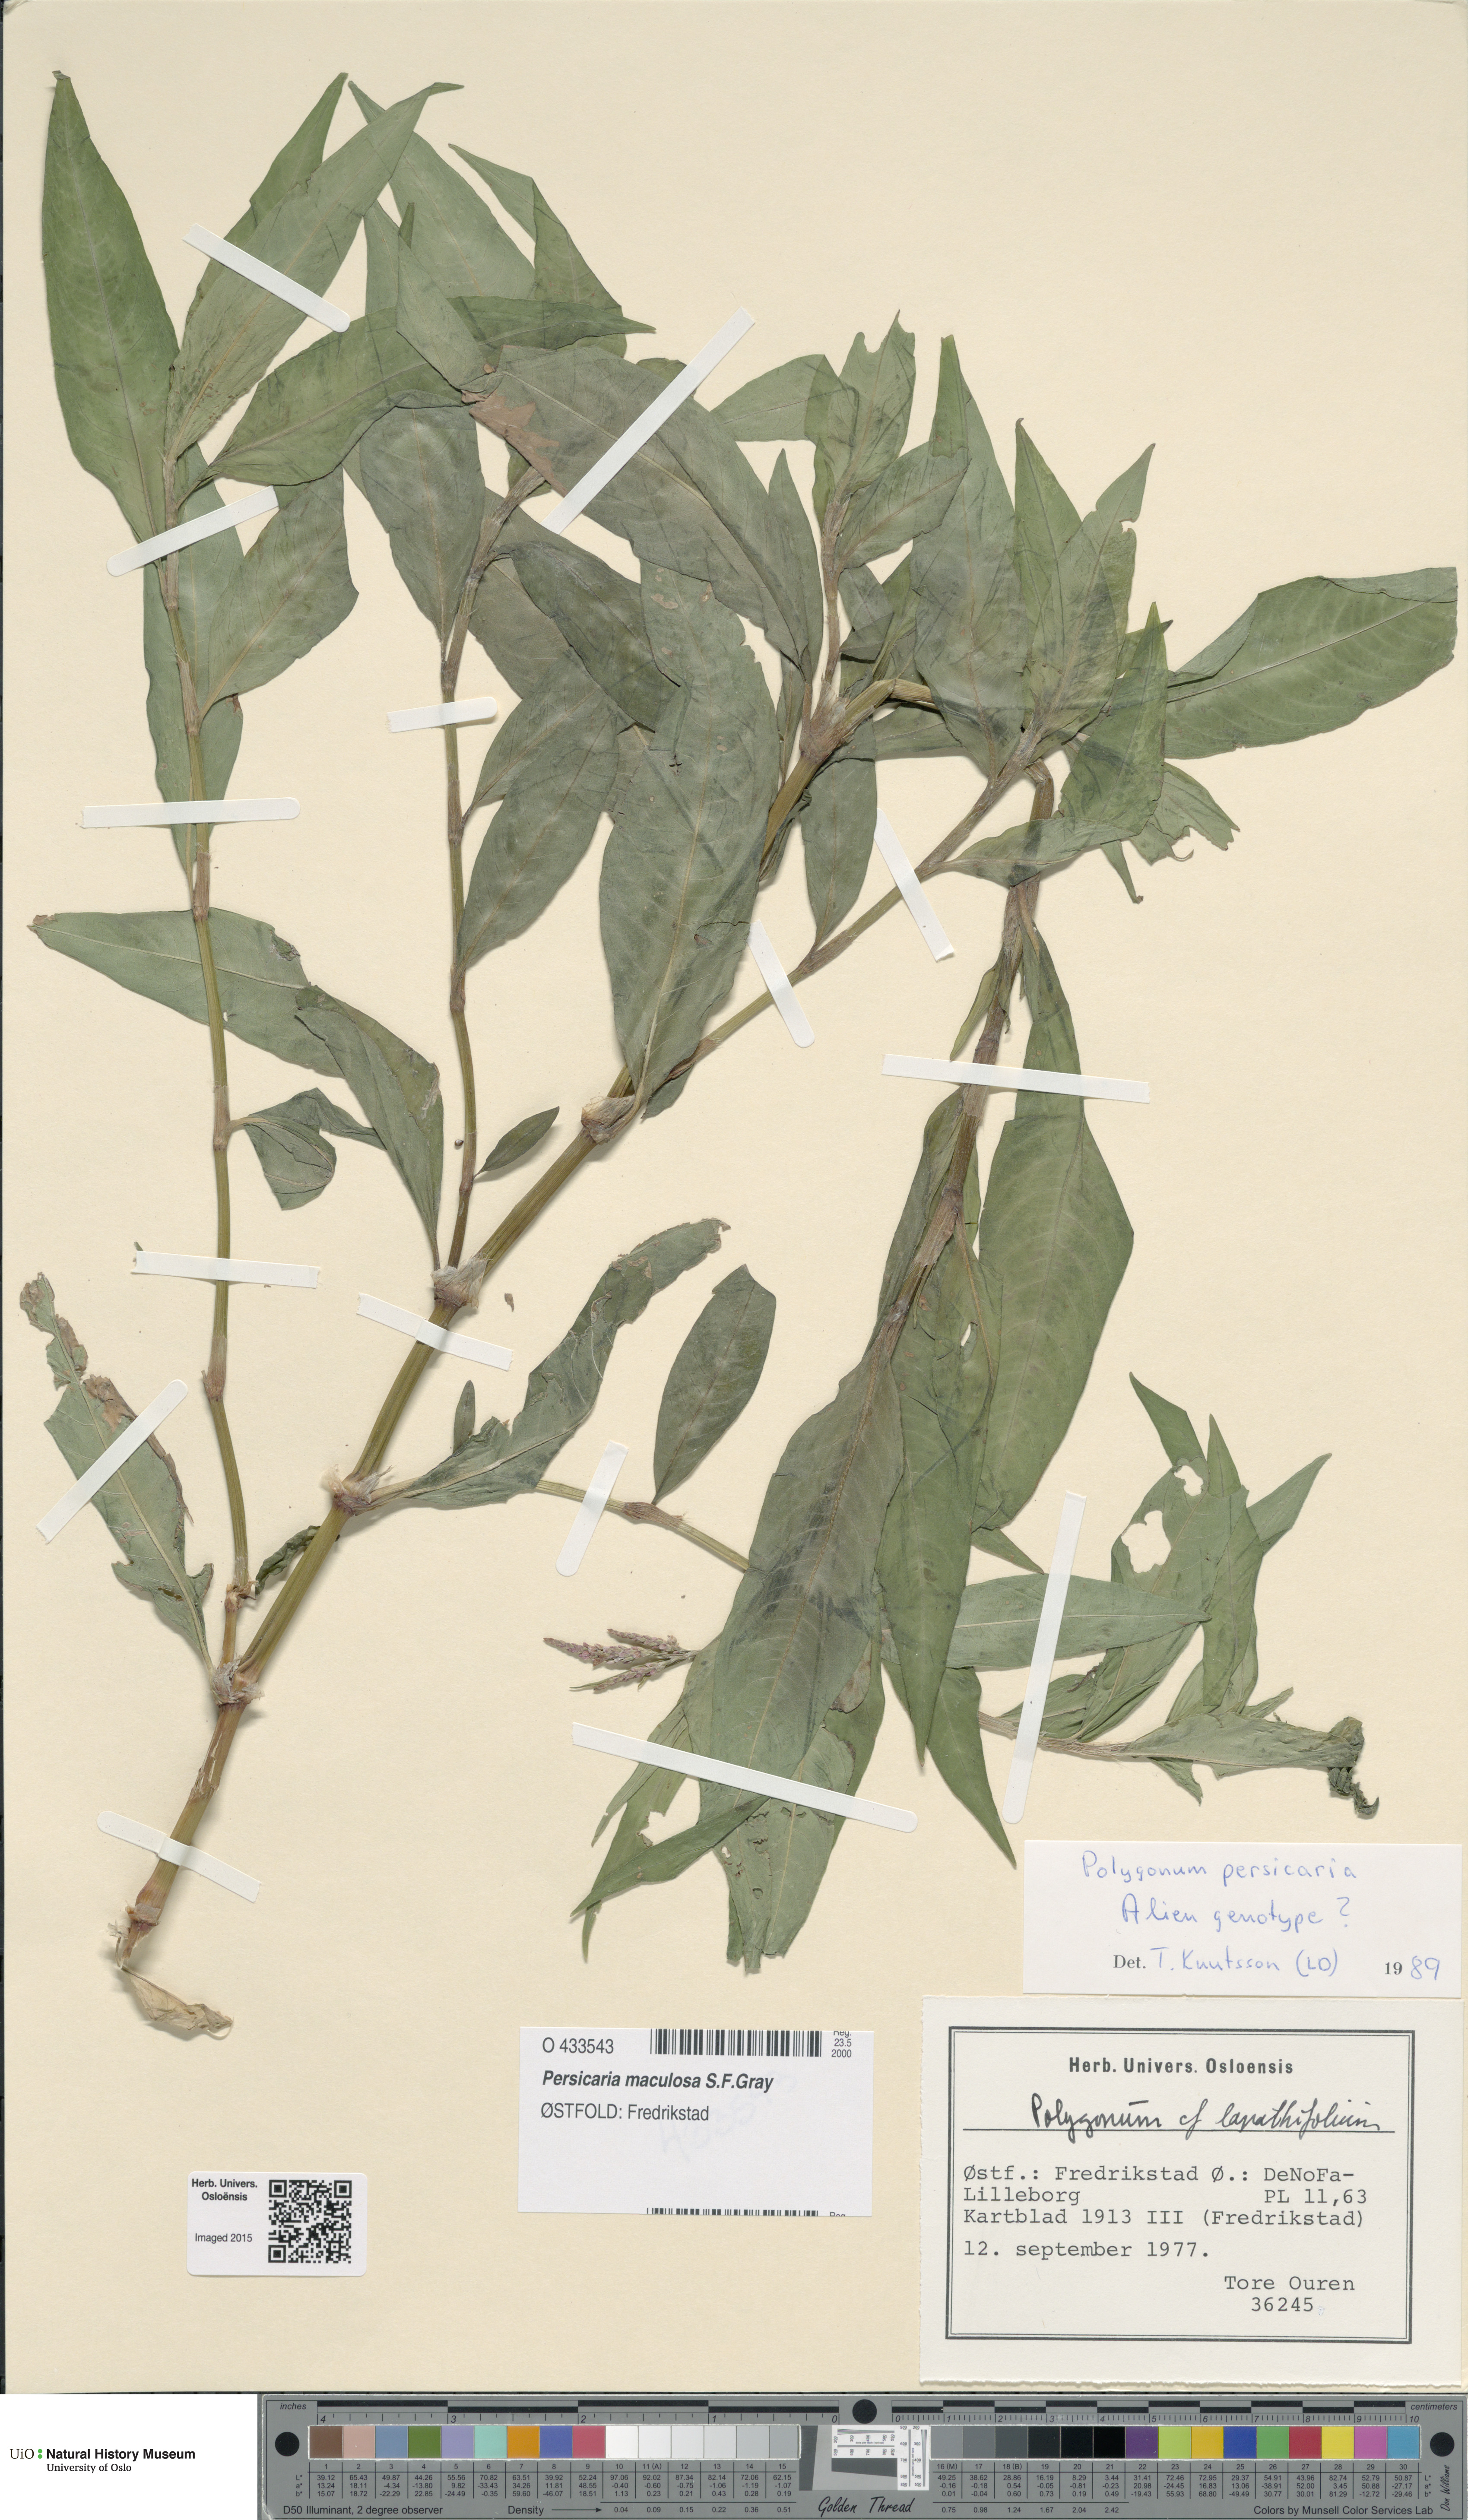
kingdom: Plantae
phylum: Tracheophyta
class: Magnoliopsida
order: Caryophyllales
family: Polygonaceae
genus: Persicaria
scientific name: Persicaria maculosa
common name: Redshank
